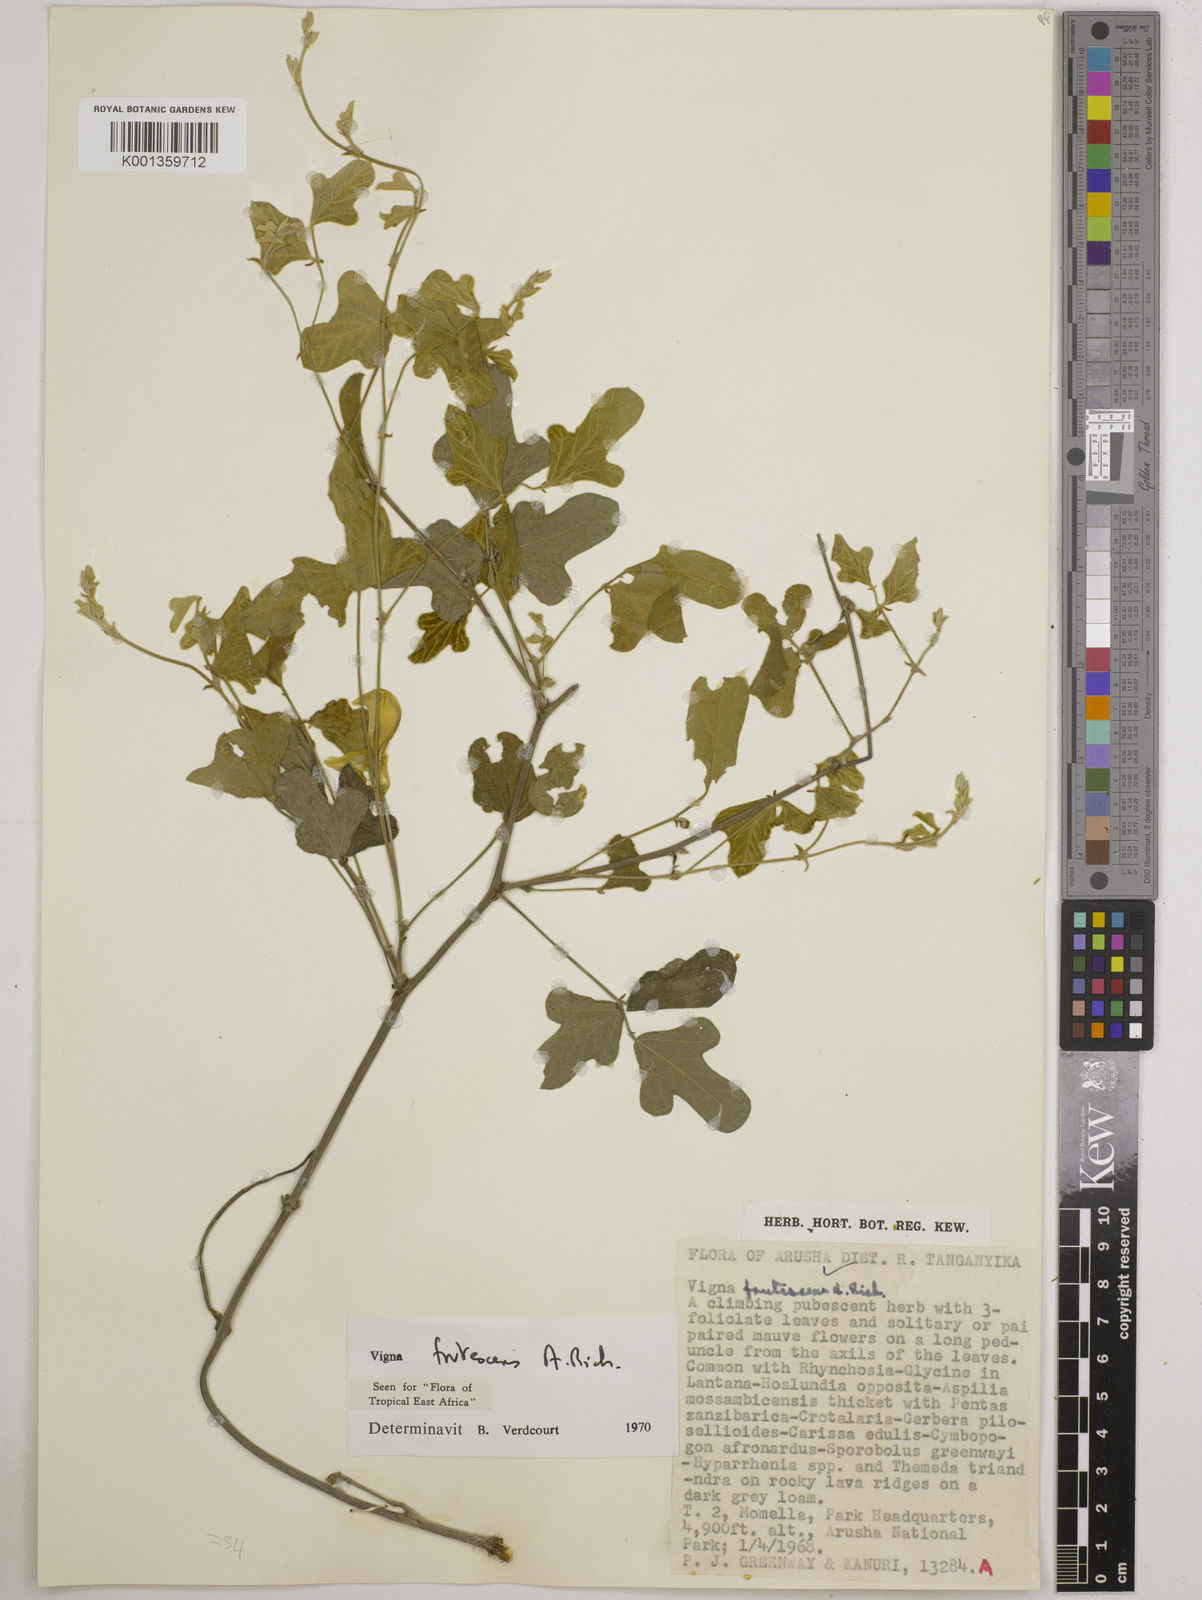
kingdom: Plantae
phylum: Tracheophyta
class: Magnoliopsida
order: Fabales
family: Fabaceae
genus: Vigna
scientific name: Vigna frutescens
